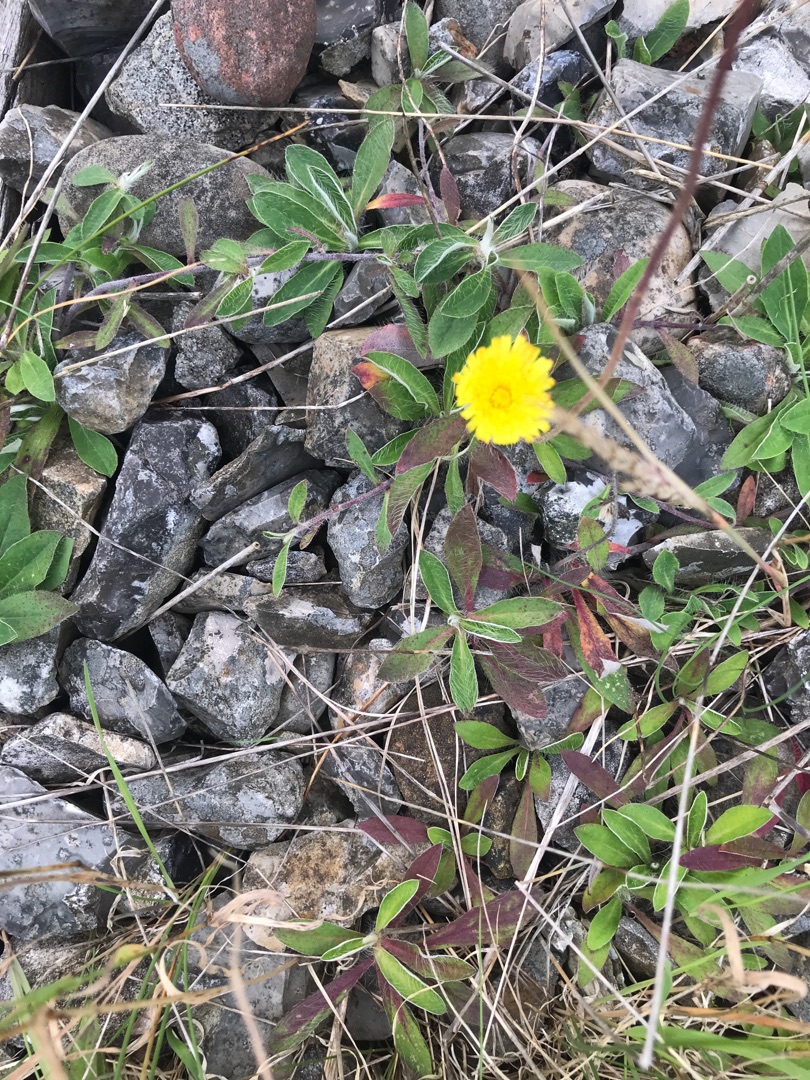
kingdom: Plantae
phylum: Tracheophyta
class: Magnoliopsida
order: Asterales
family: Asteraceae
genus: Pilosella
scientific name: Pilosella officinarum
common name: Håret høgeurt
